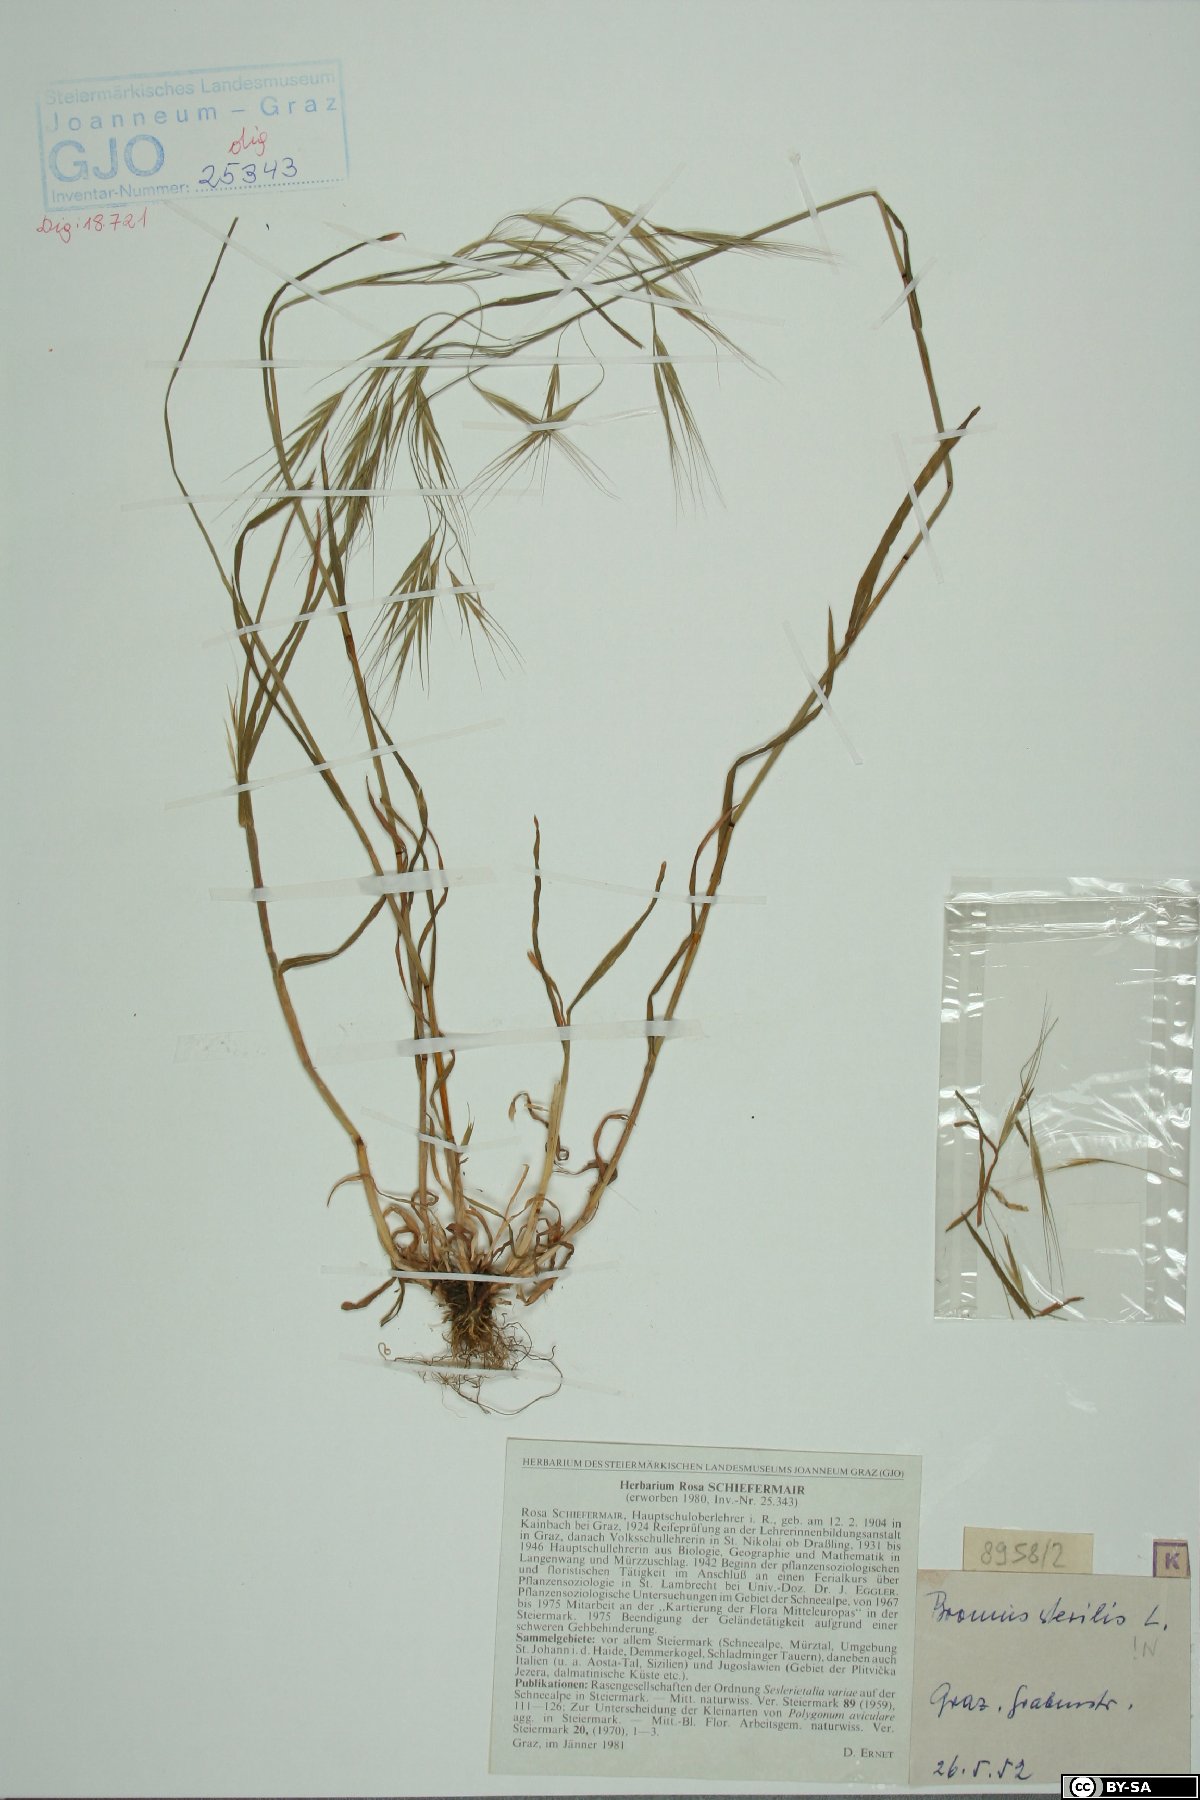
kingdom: Plantae
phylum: Tracheophyta
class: Liliopsida
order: Poales
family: Poaceae
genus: Bromus
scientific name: Bromus sterilis
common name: Poverty brome
